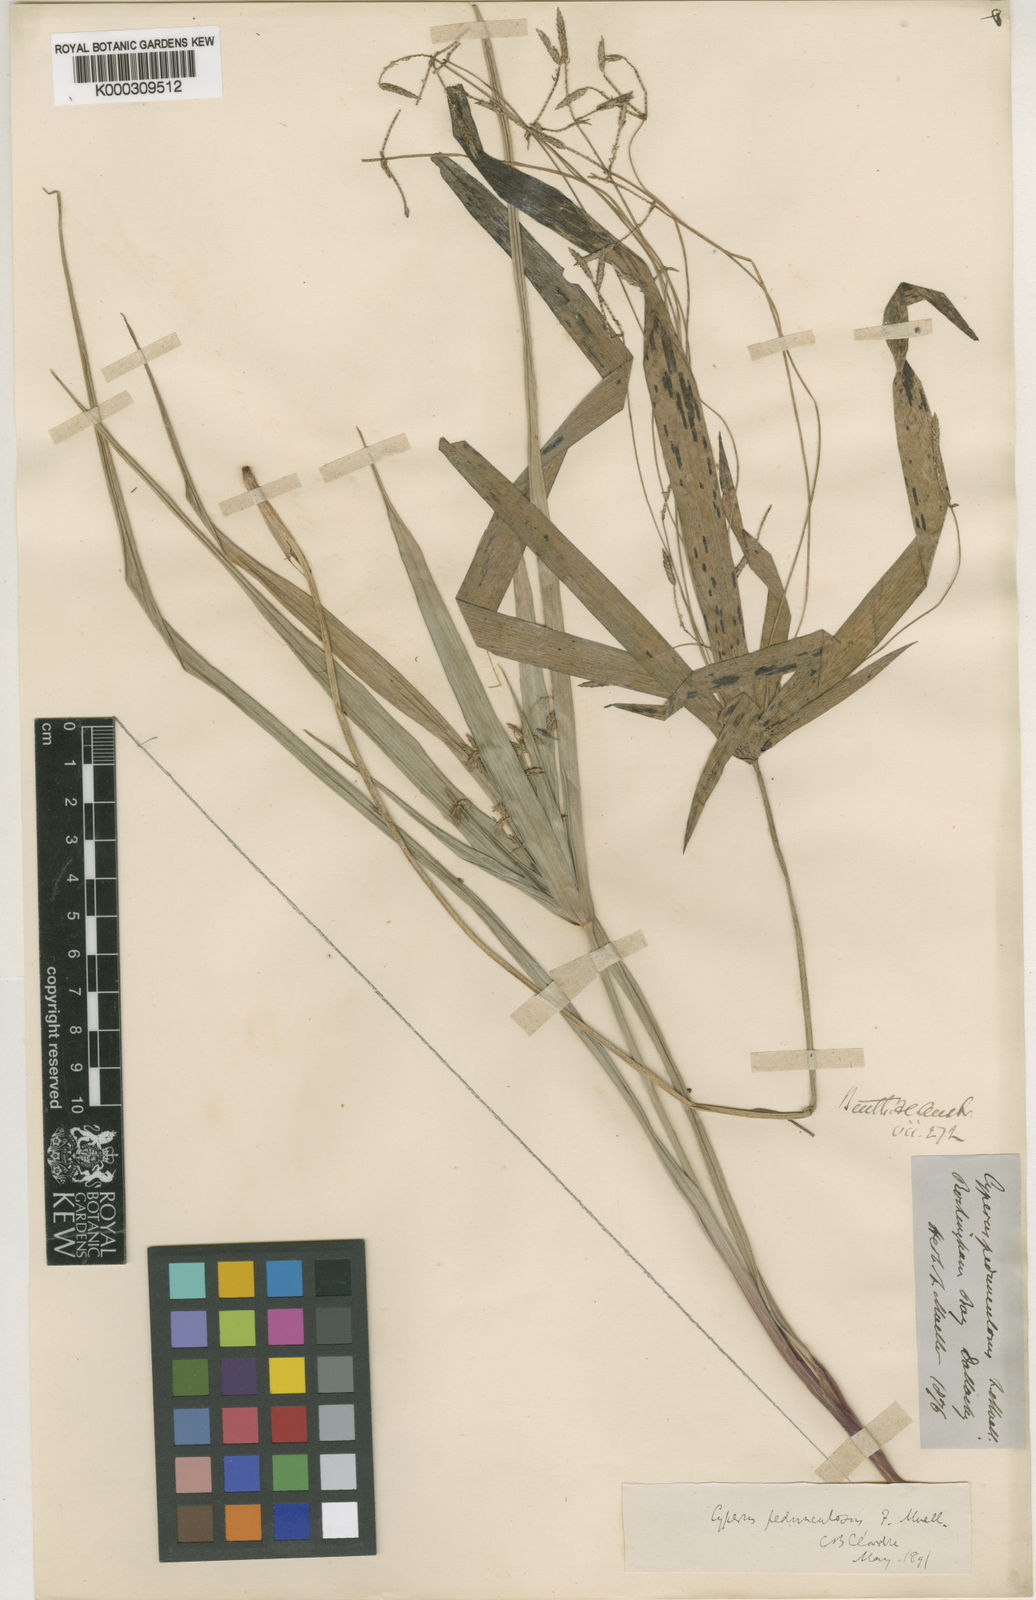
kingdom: Plantae
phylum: Tracheophyta
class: Liliopsida
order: Poales
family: Cyperaceae
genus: Cyperus
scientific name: Cyperus pedunculosus
